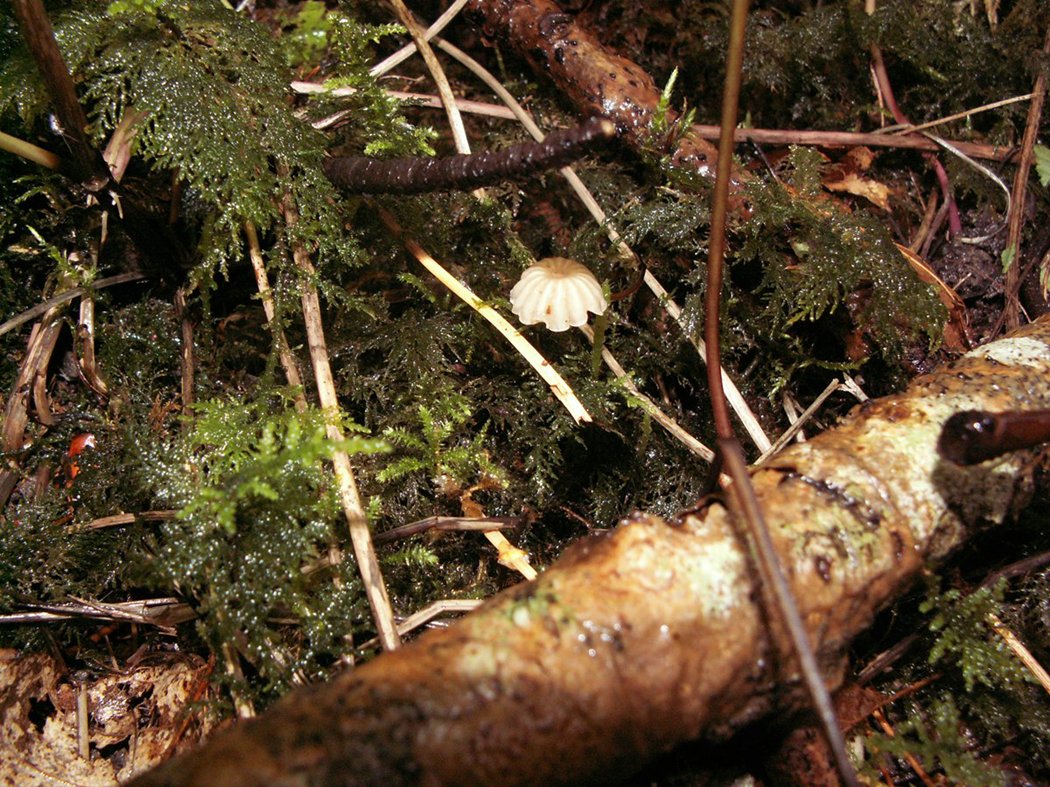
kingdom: Fungi
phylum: Basidiomycota
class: Agaricomycetes
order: Agaricales
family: Marasmiaceae
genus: Marasmius
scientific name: Marasmius rotula
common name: hjul-bruskhat
